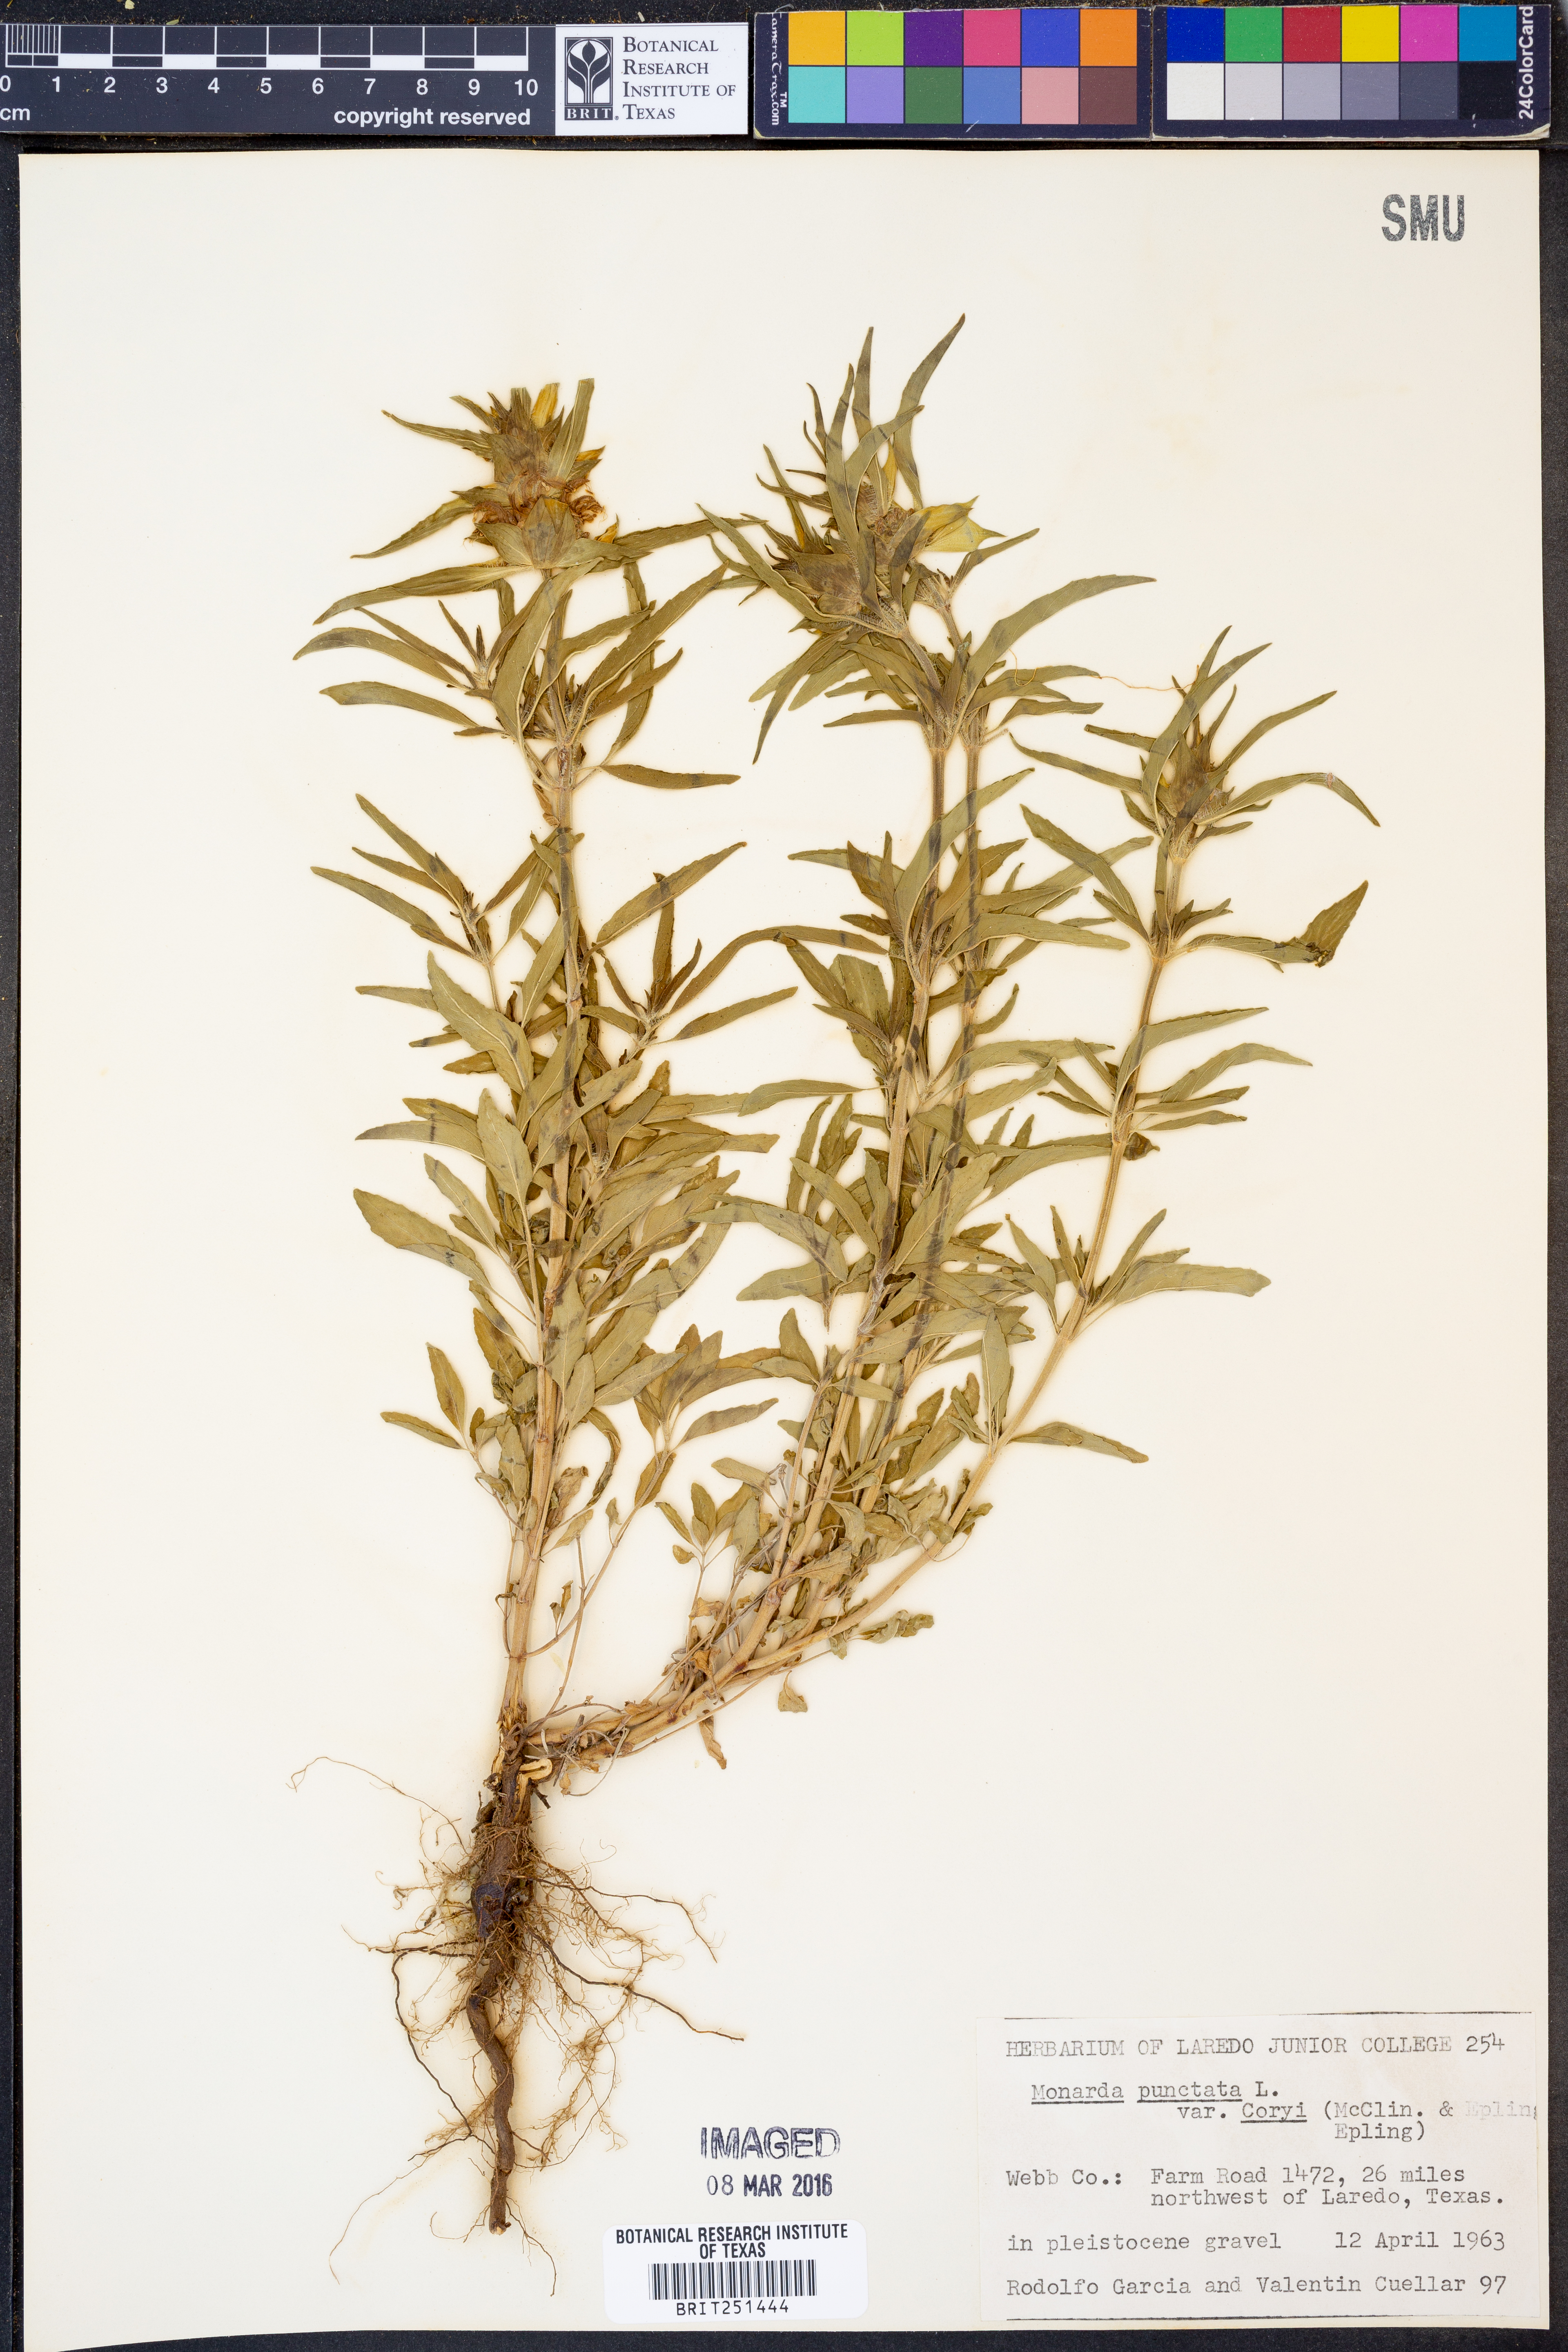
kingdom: Plantae
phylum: Tracheophyta
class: Magnoliopsida
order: Lamiales
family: Lamiaceae
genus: Monarda
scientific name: Monarda punctata
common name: Dotted monarda
